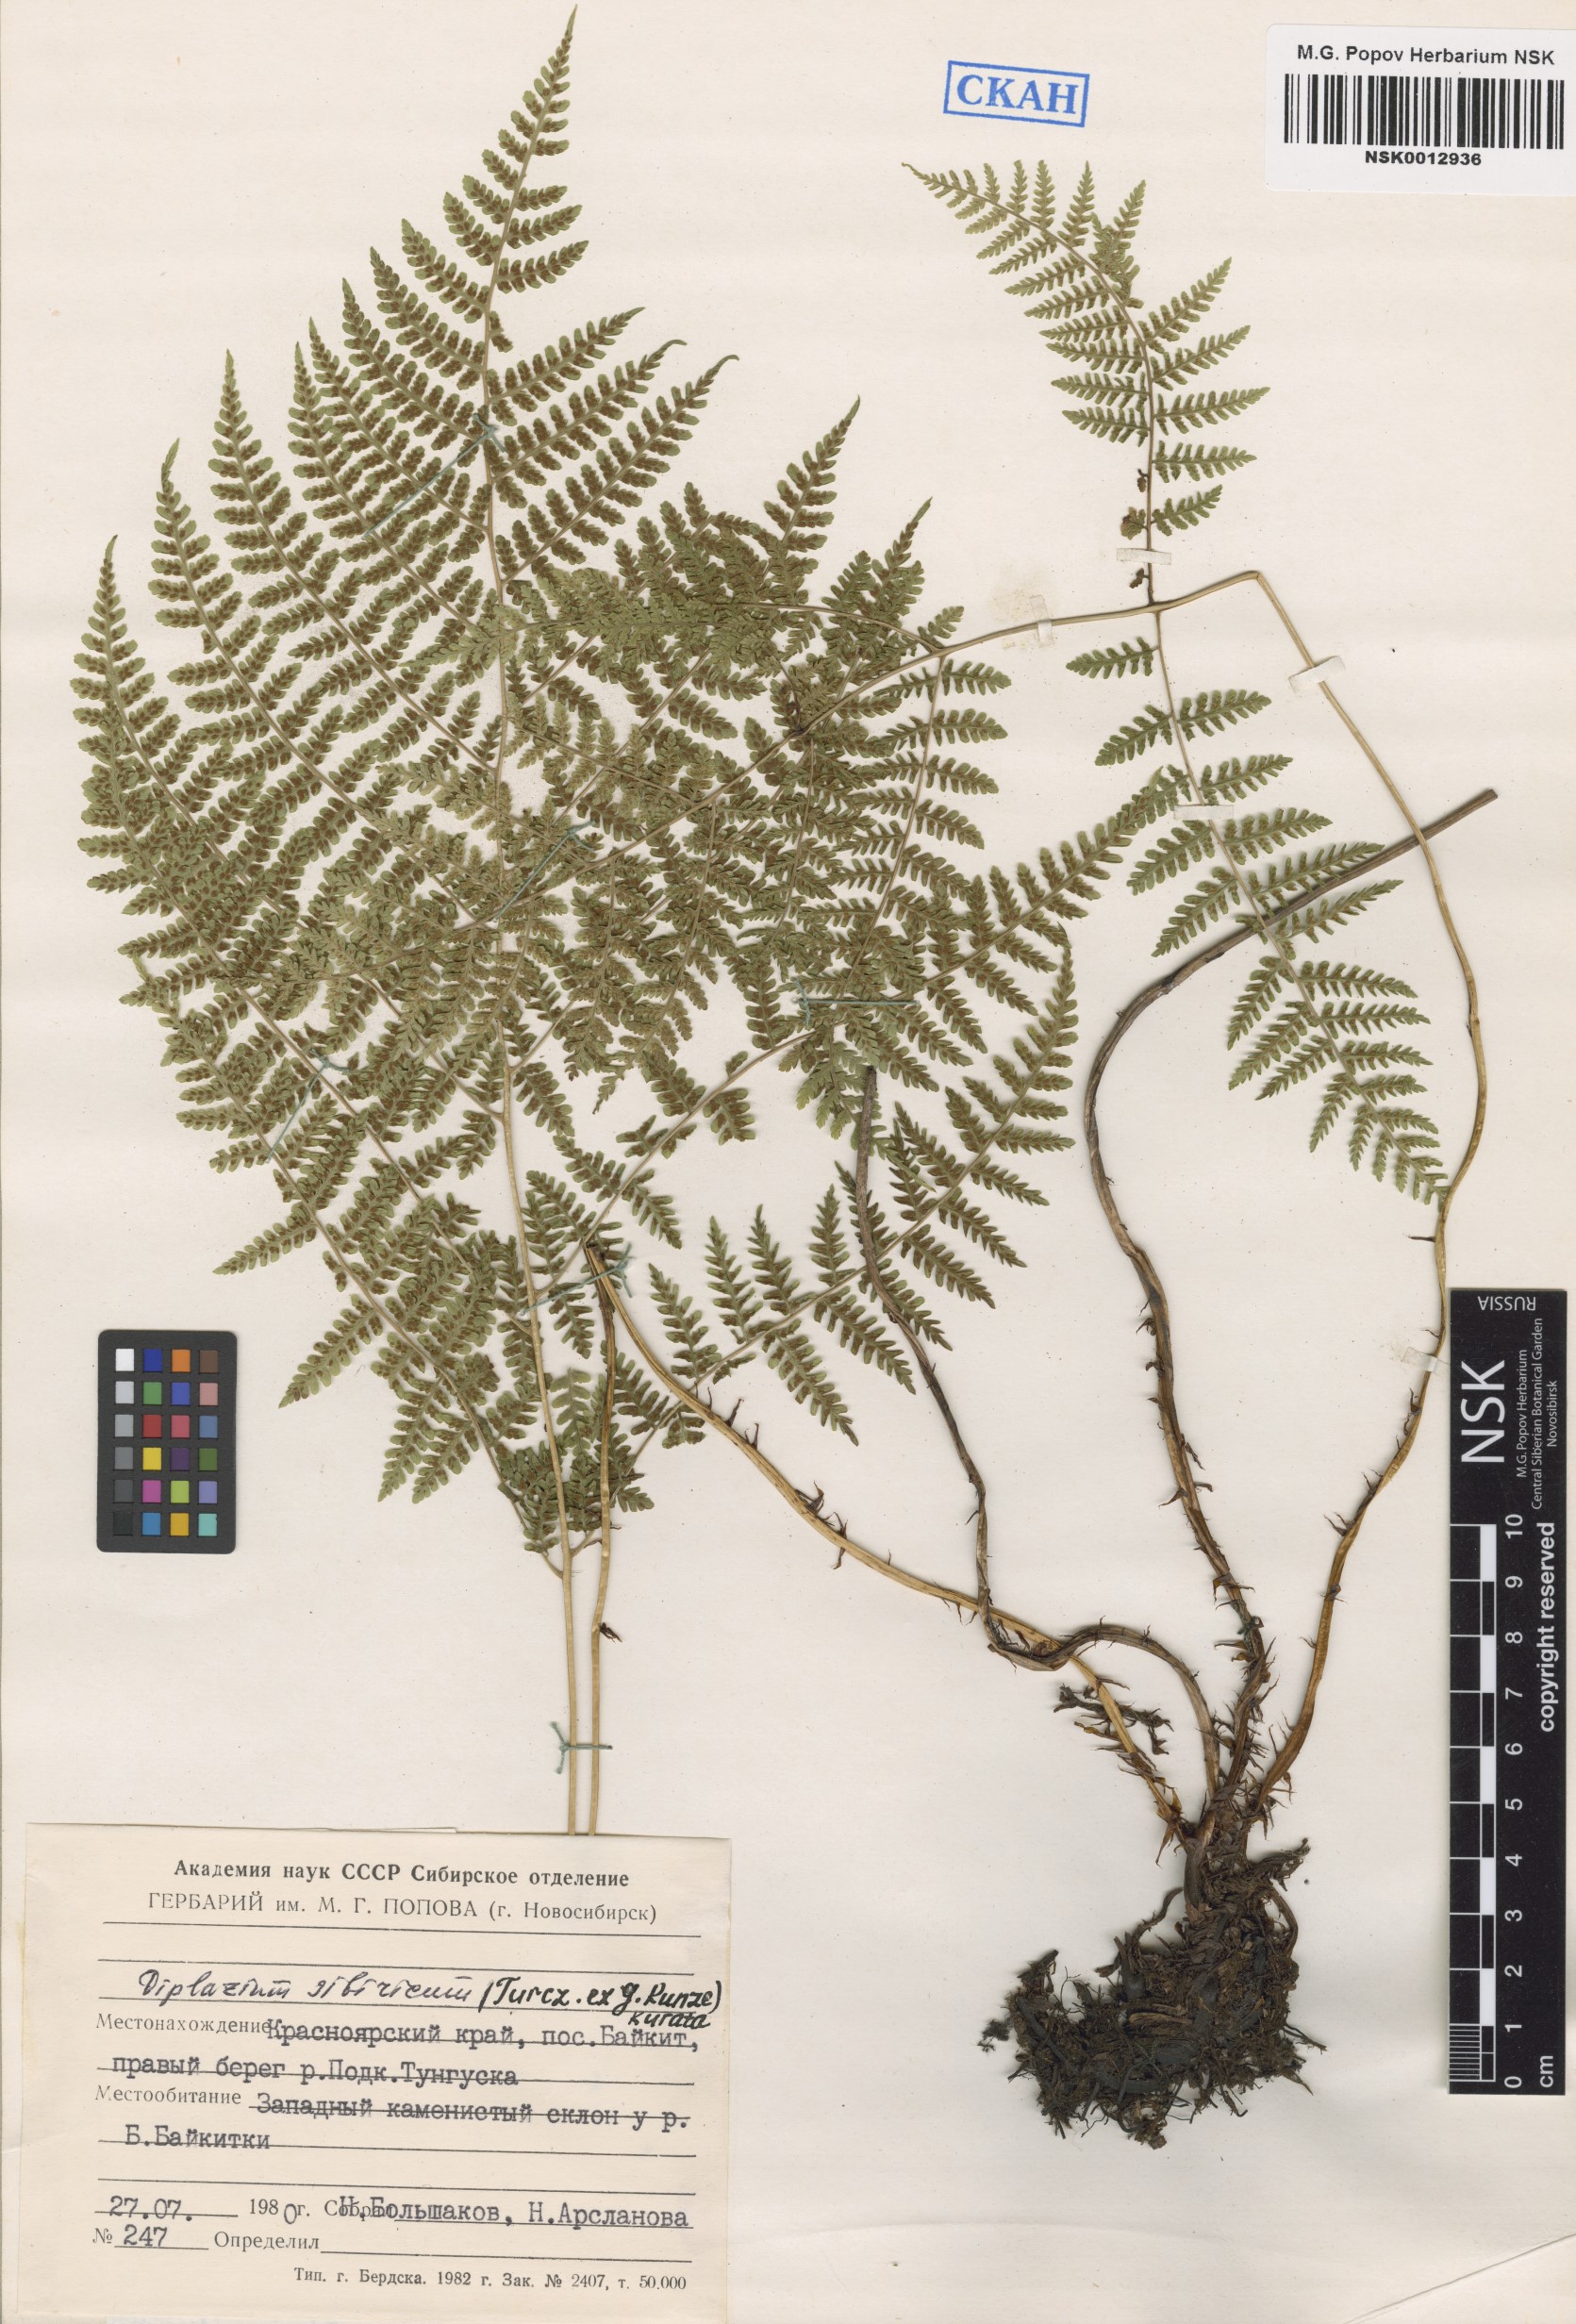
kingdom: Plantae
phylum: Tracheophyta
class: Polypodiopsida
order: Polypodiales
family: Athyriaceae
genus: Diplazium
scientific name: Diplazium sibiricum
